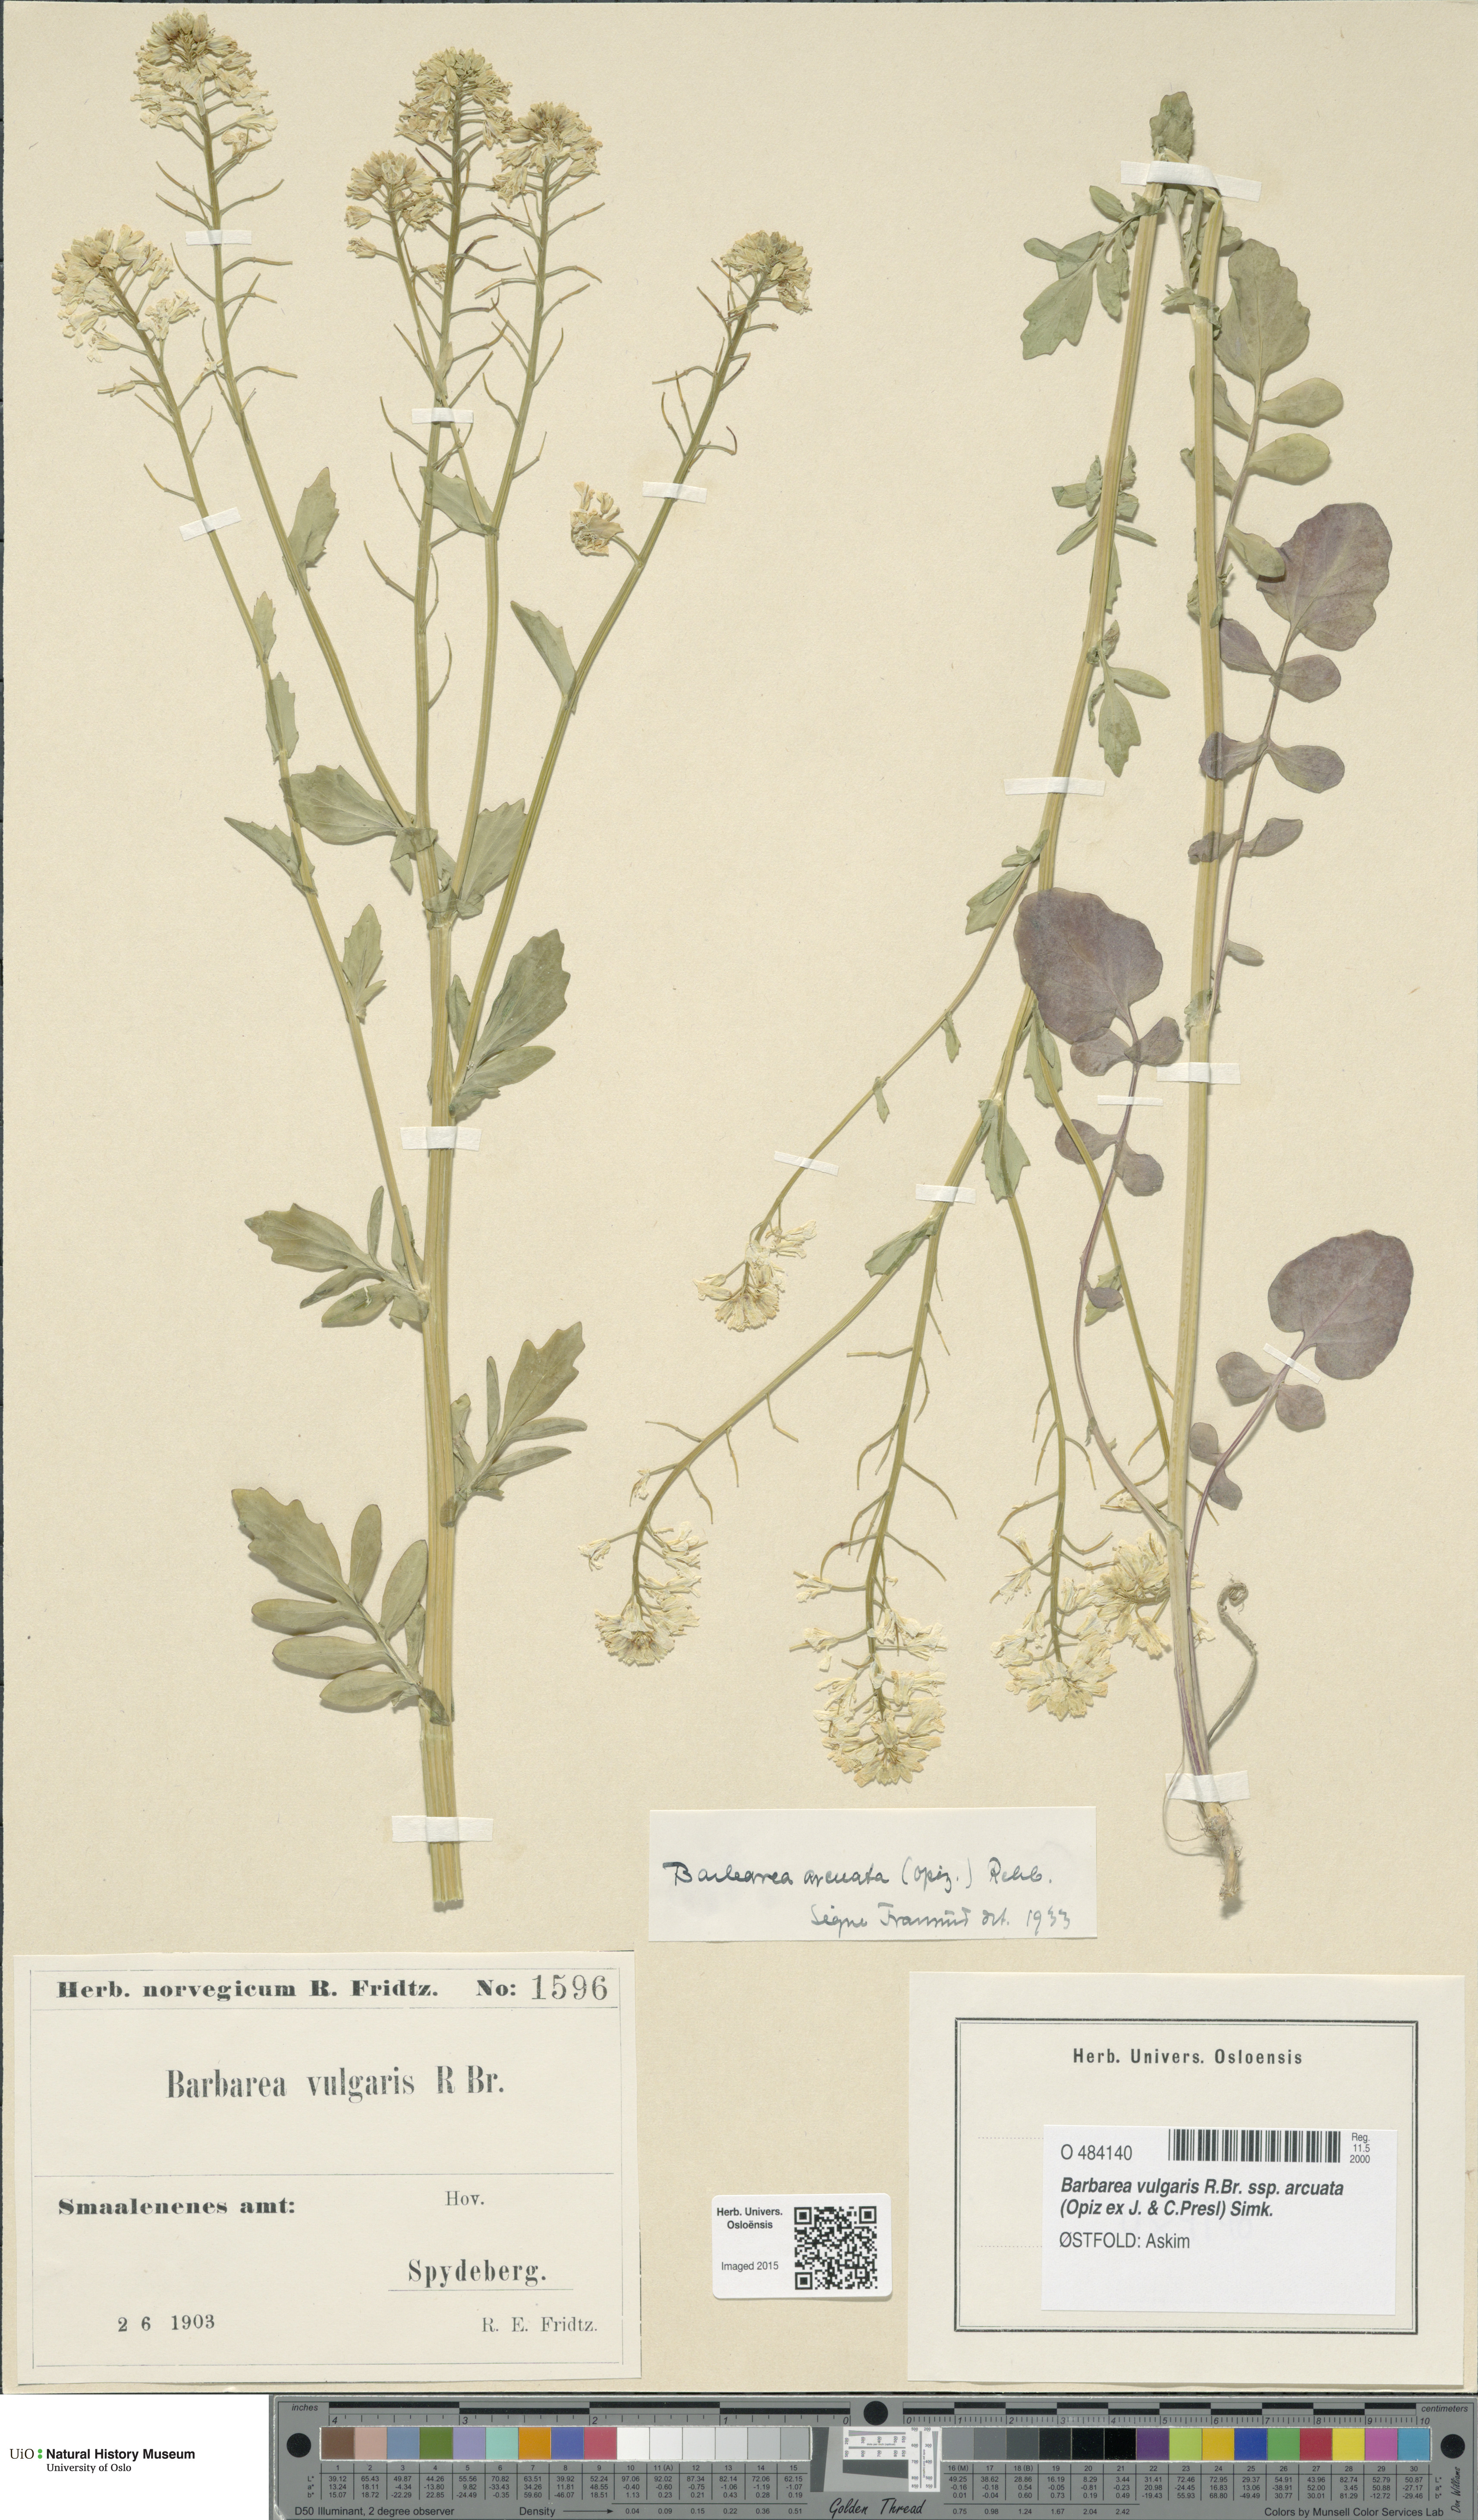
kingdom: Plantae
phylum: Tracheophyta
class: Magnoliopsida
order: Brassicales
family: Brassicaceae
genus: Barbarea
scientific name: Barbarea vulgaris
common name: Cressy-greens
